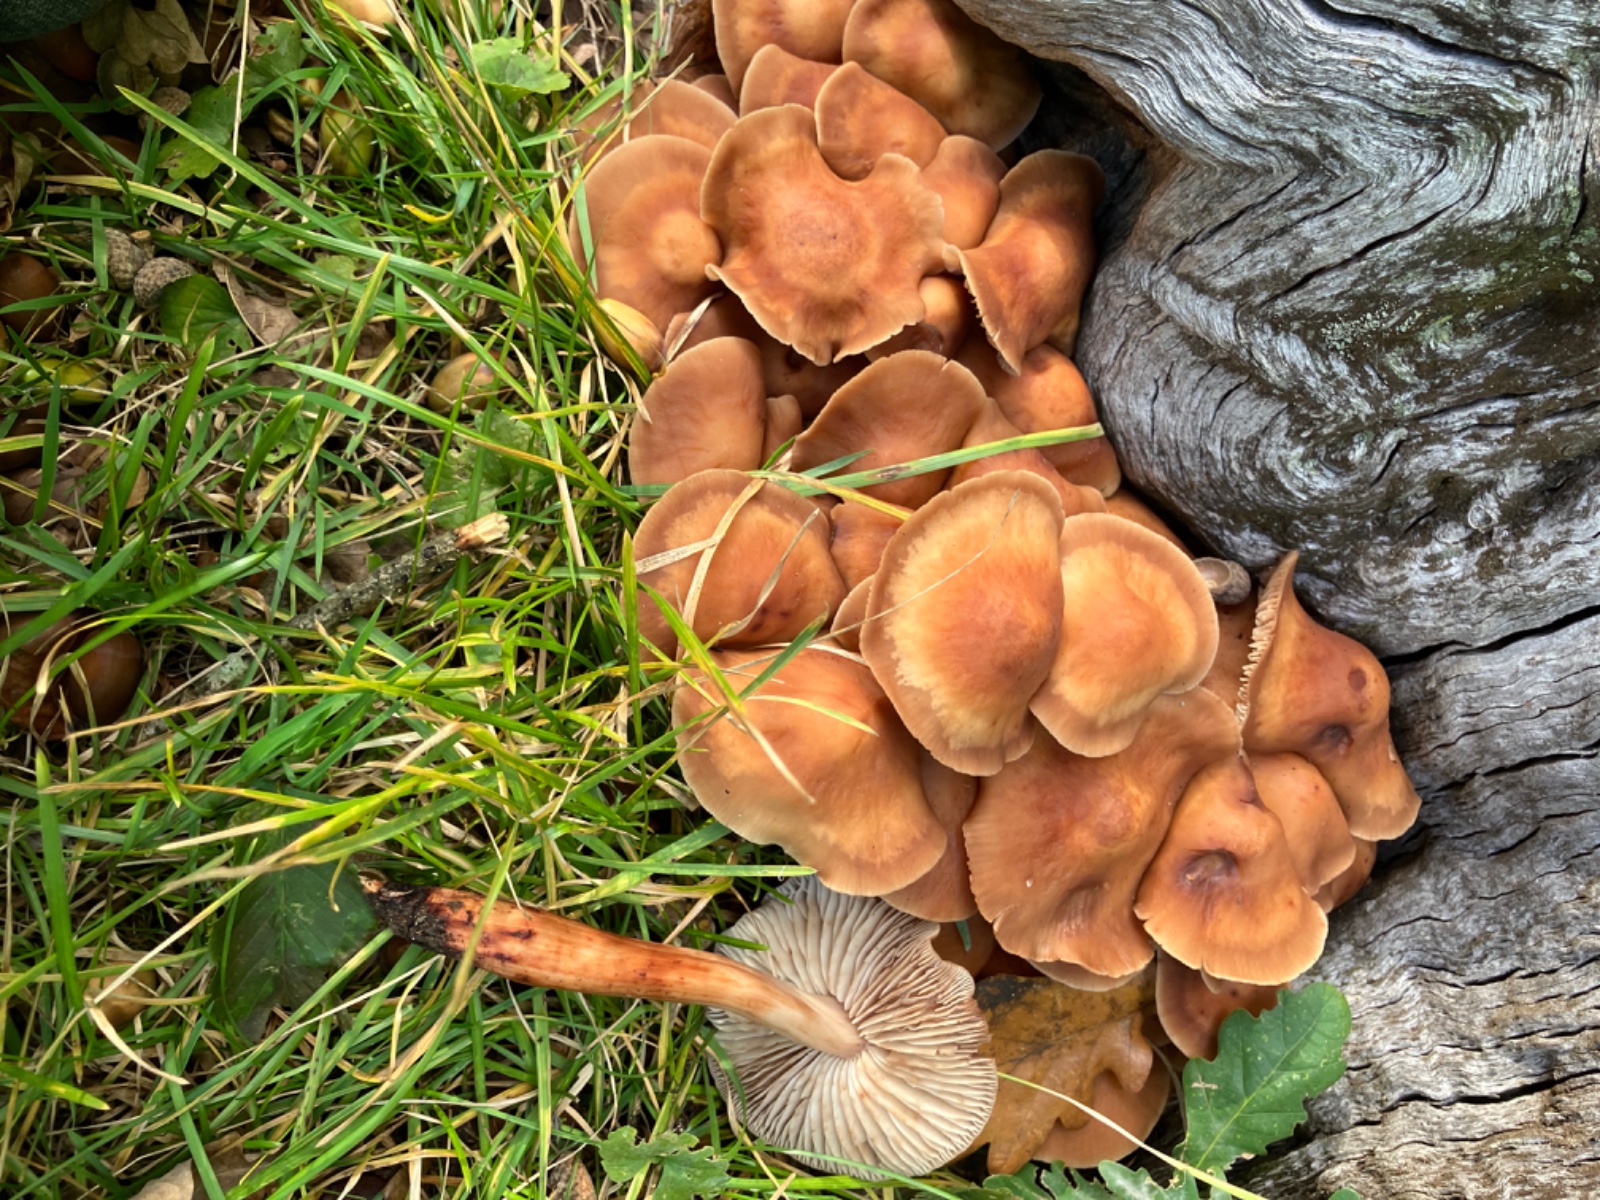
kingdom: Fungi
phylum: Basidiomycota
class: Agaricomycetes
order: Agaricales
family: Omphalotaceae
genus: Gymnopus
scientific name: Gymnopus fusipes
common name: tenstokket fladhat
